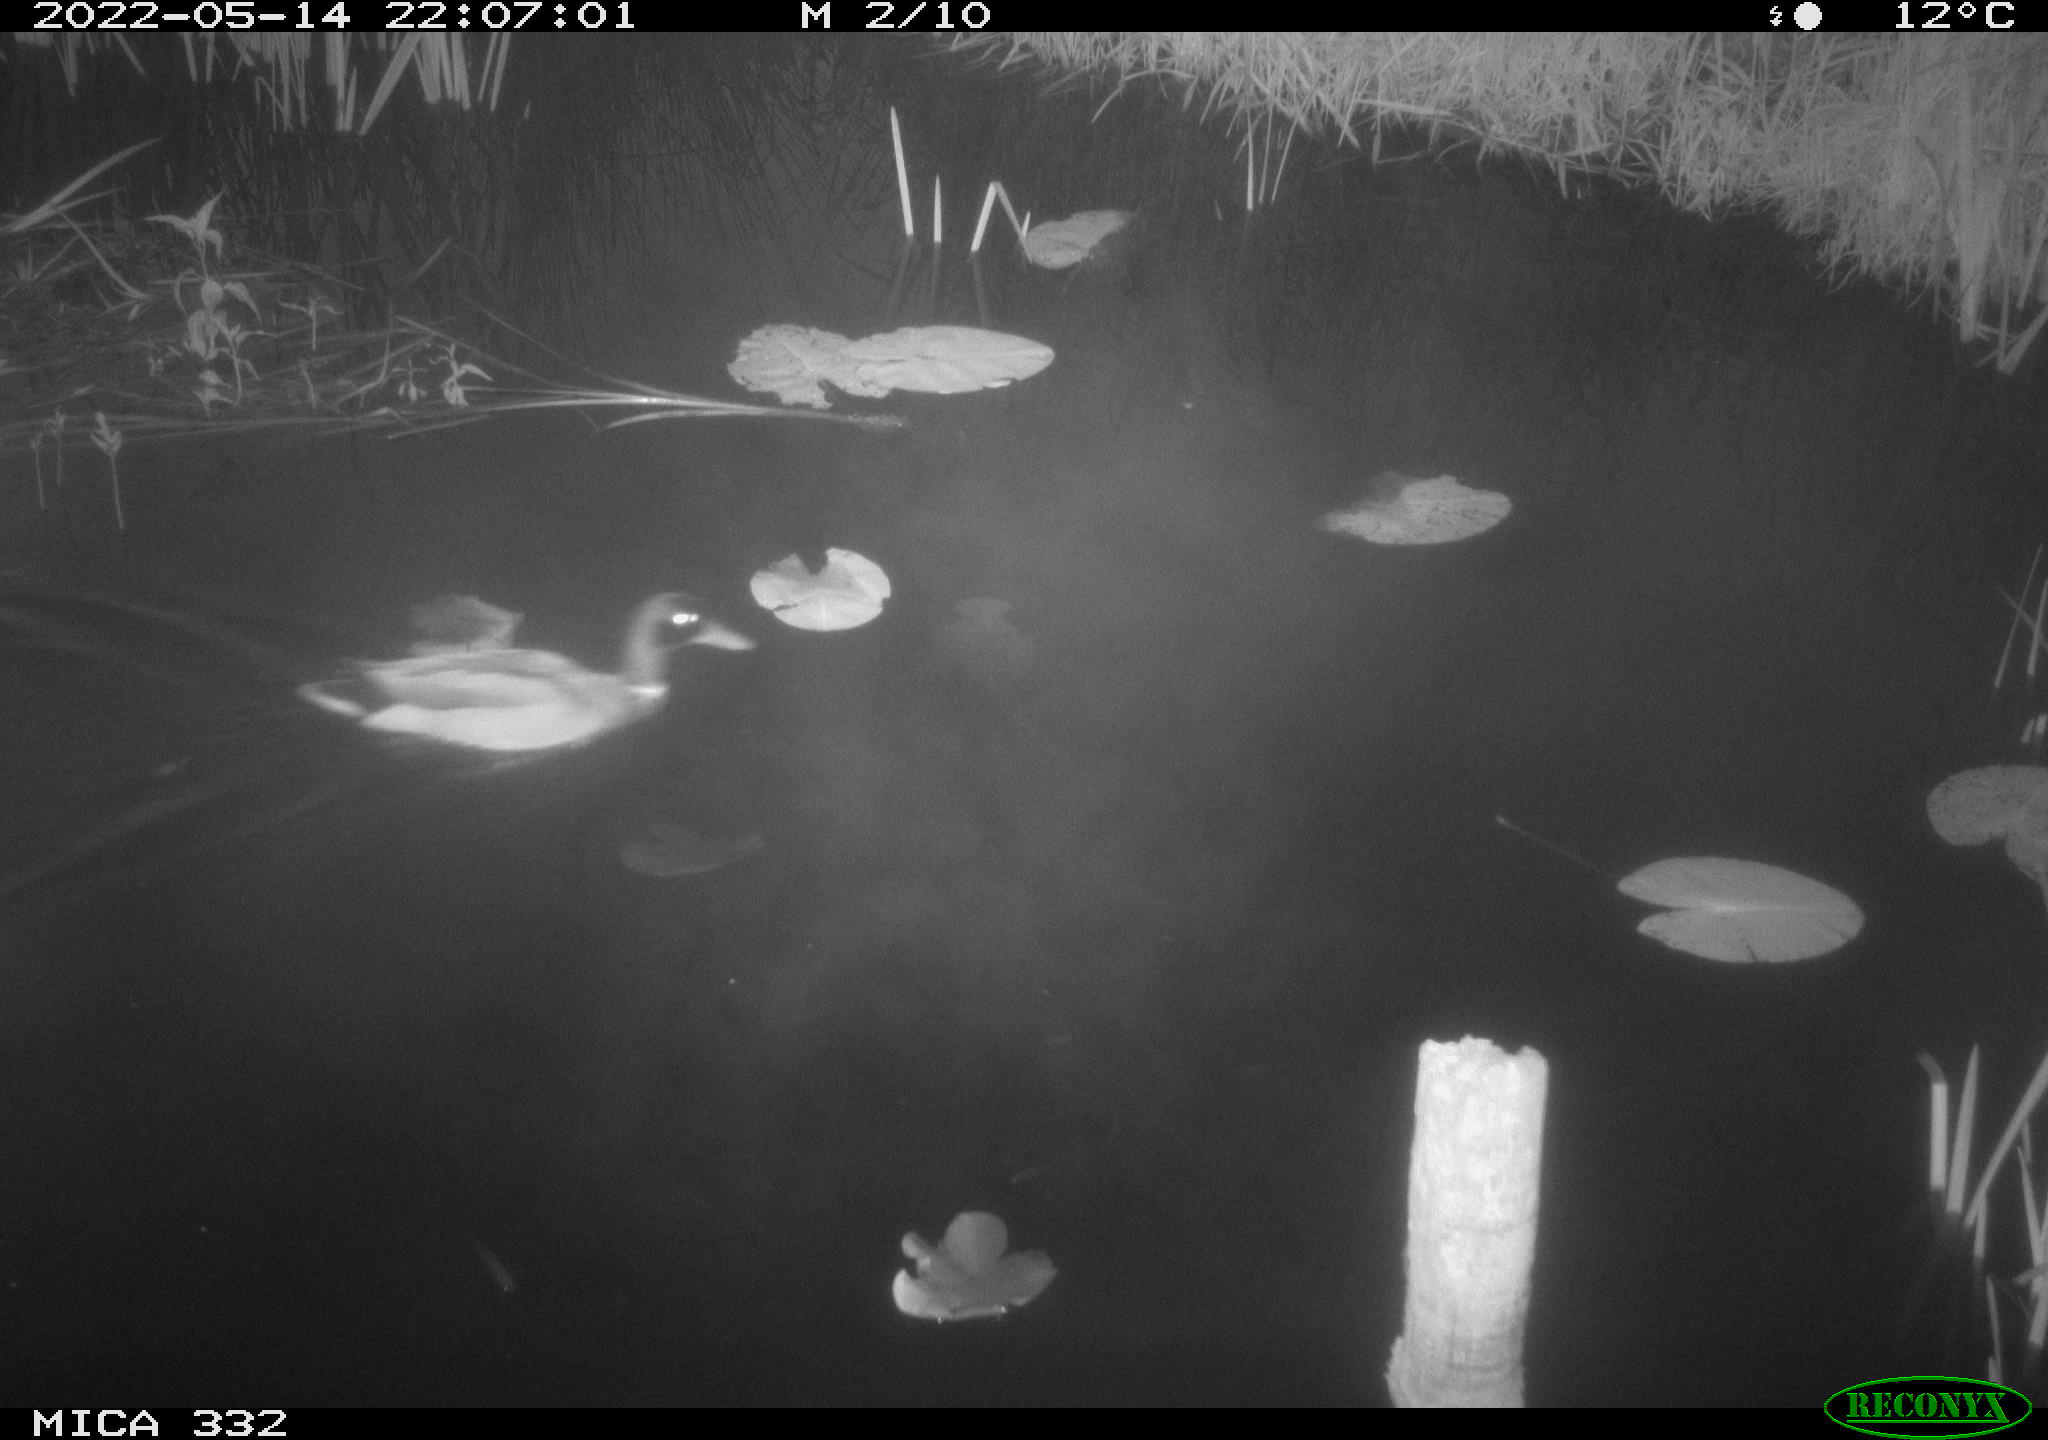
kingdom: Animalia
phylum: Chordata
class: Aves
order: Anseriformes
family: Anatidae
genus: Anas
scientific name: Anas platyrhynchos
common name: Mallard
